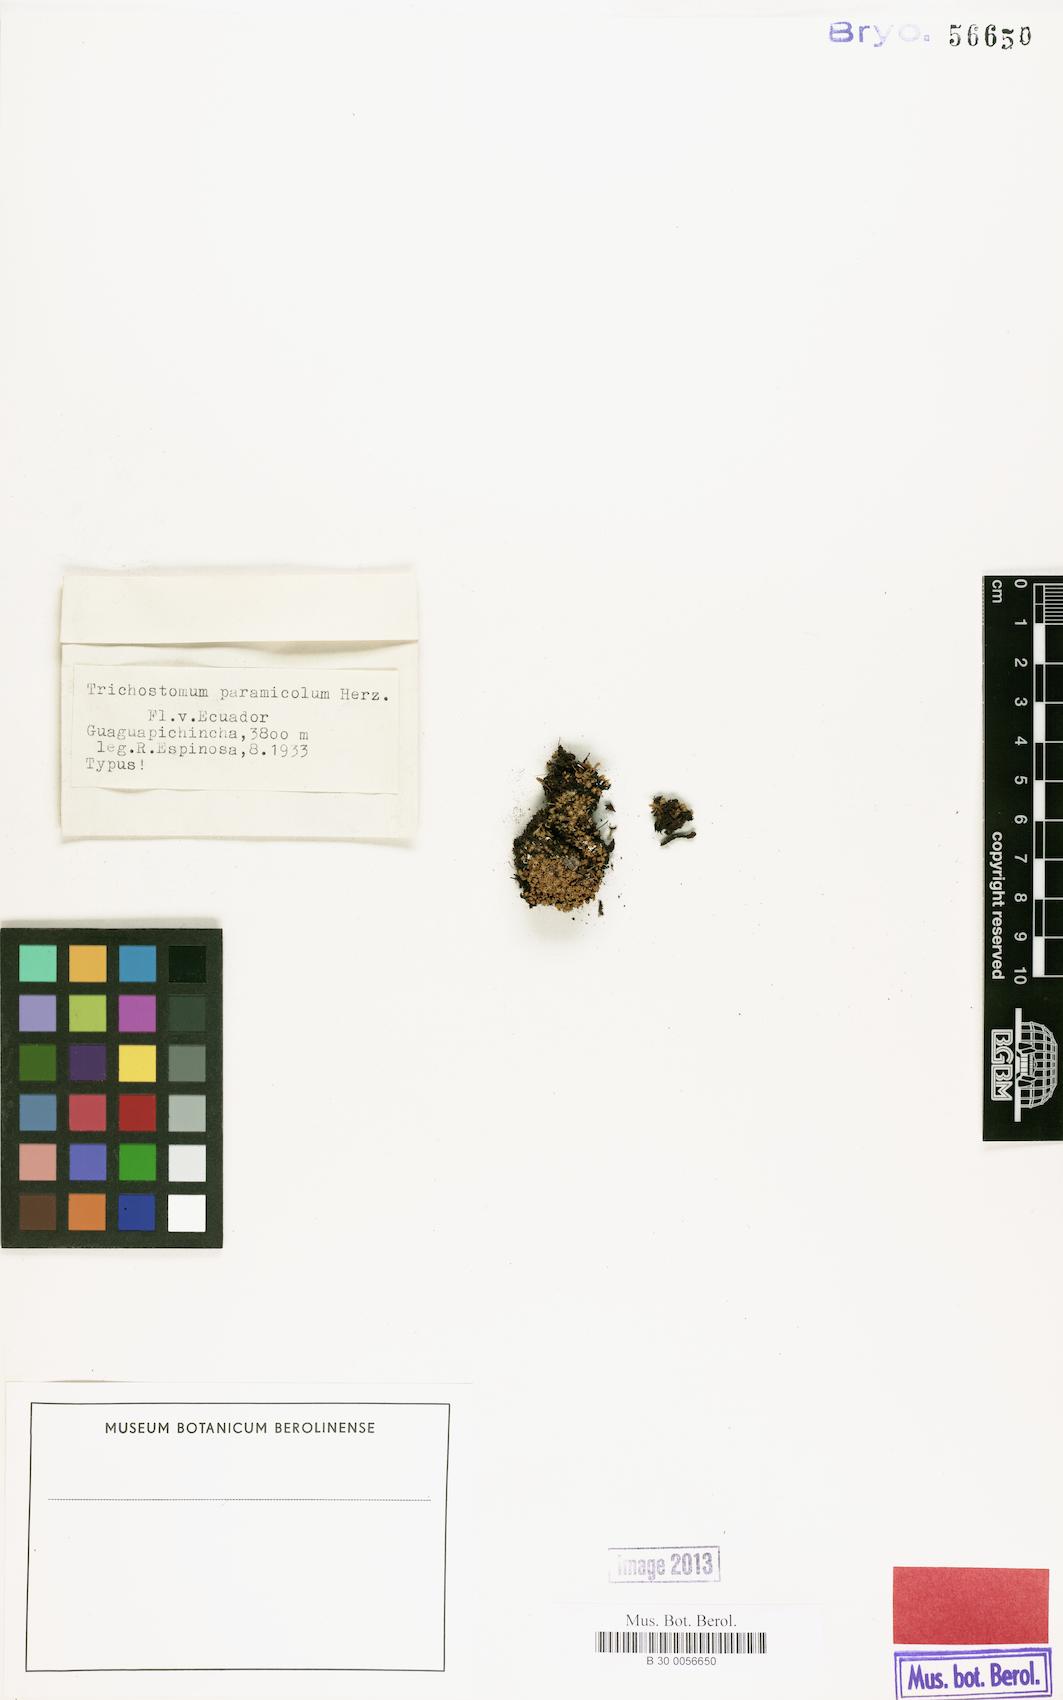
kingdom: Plantae
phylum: Bryophyta
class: Bryopsida
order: Pottiales
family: Pottiaceae
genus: Trichostomum
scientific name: Trichostomum
